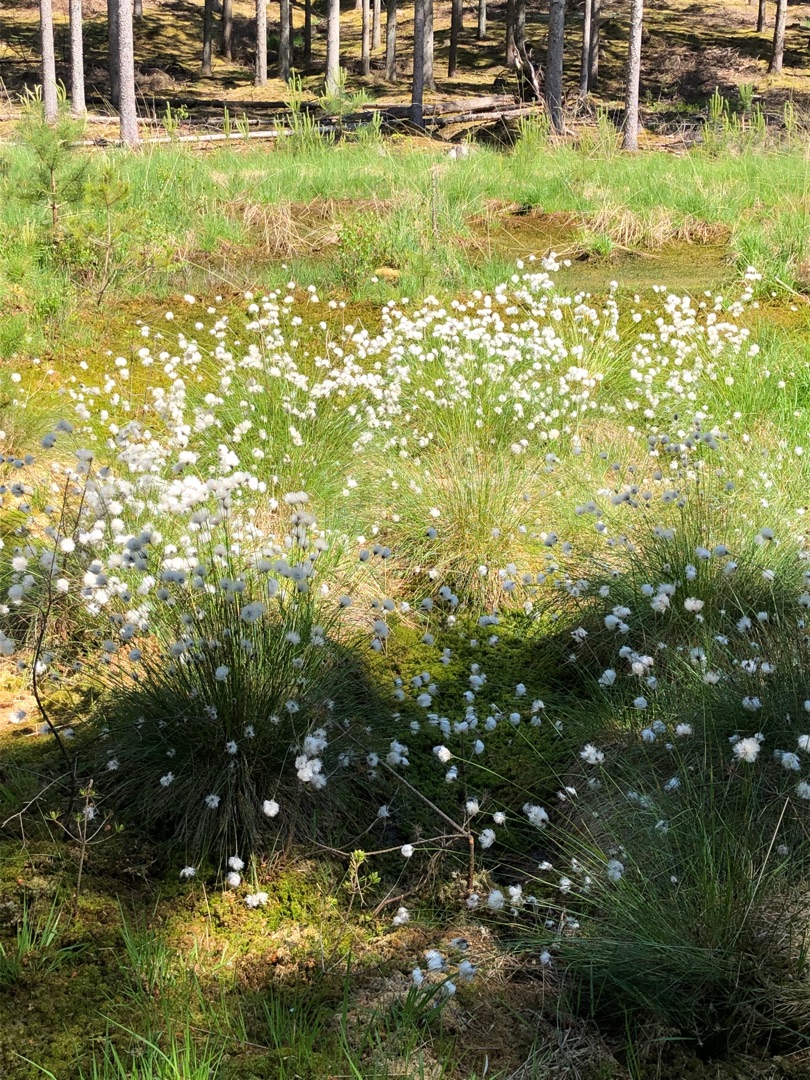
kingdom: Plantae
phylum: Tracheophyta
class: Liliopsida
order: Poales
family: Cyperaceae
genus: Eriophorum
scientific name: Eriophorum vaginatum
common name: Tue-kæruld
